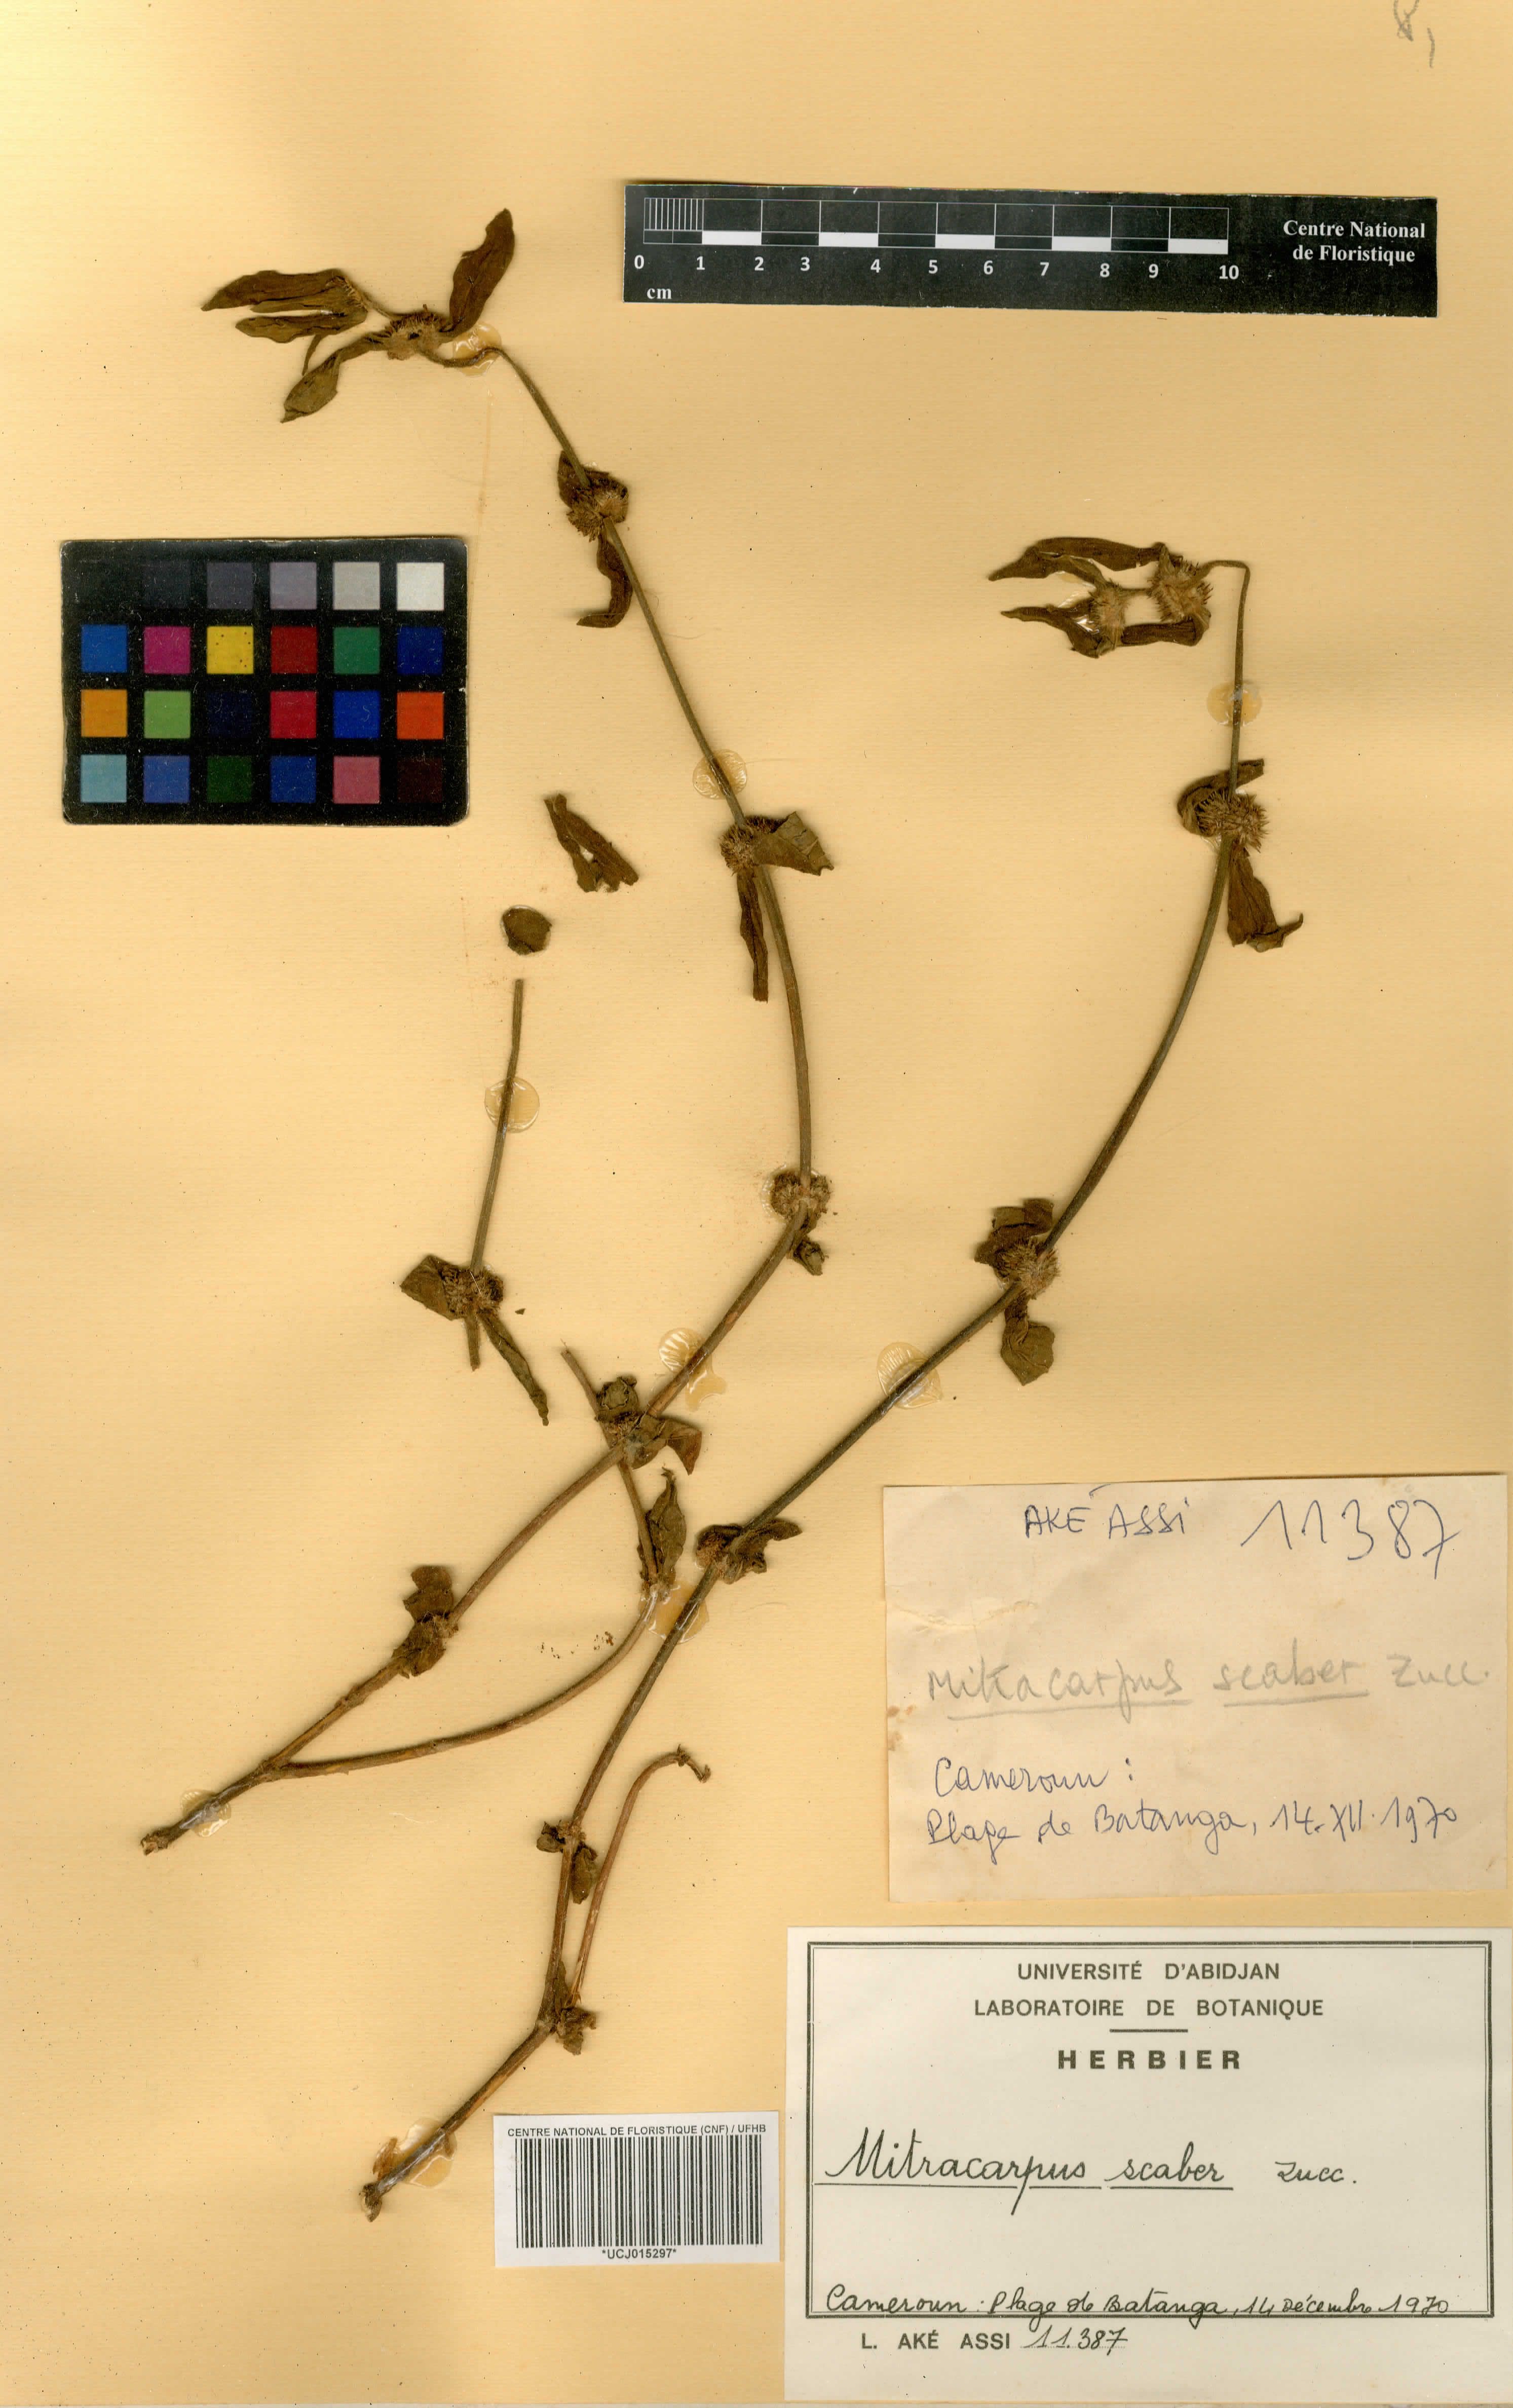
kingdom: Plantae
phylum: Tracheophyta
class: Magnoliopsida
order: Gentianales
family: Rubiaceae
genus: Mitracarpus
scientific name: Mitracarpus hirtus
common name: Tropical girdlepod
